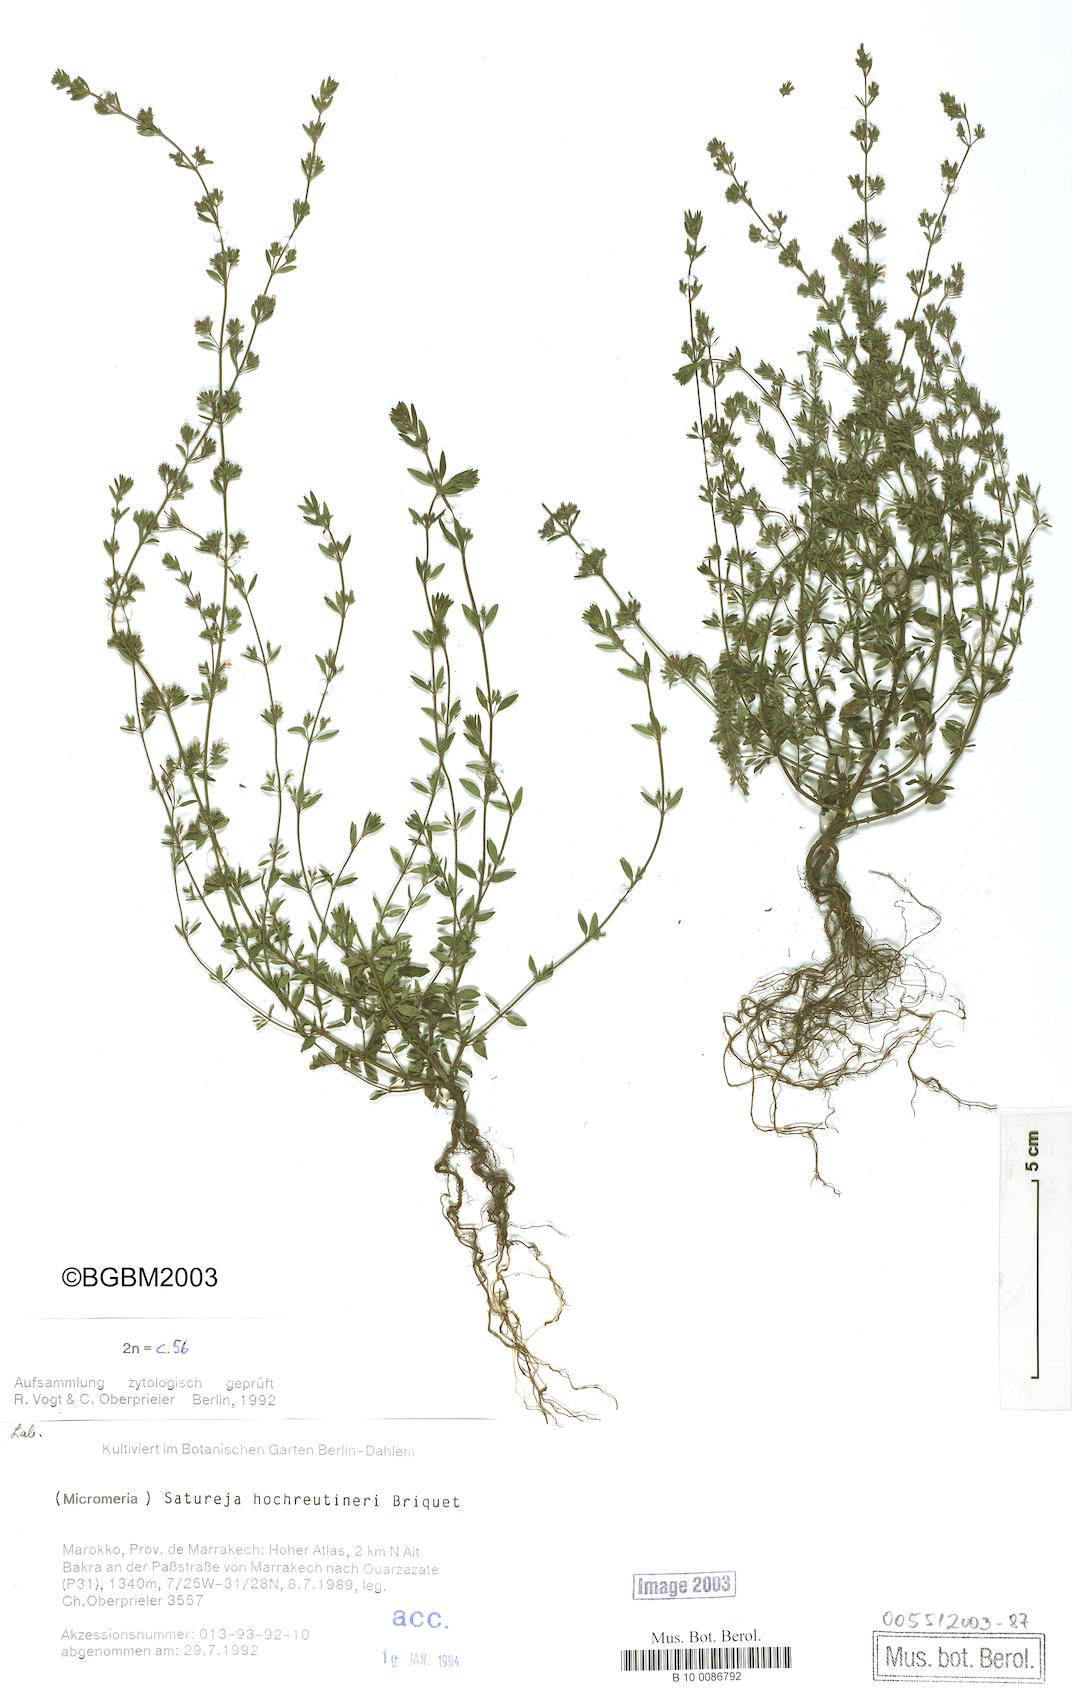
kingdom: Plantae
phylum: Tracheophyta
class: Magnoliopsida
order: Lamiales
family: Lamiaceae
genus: Micromeria
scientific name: Micromeria hochreutineri
